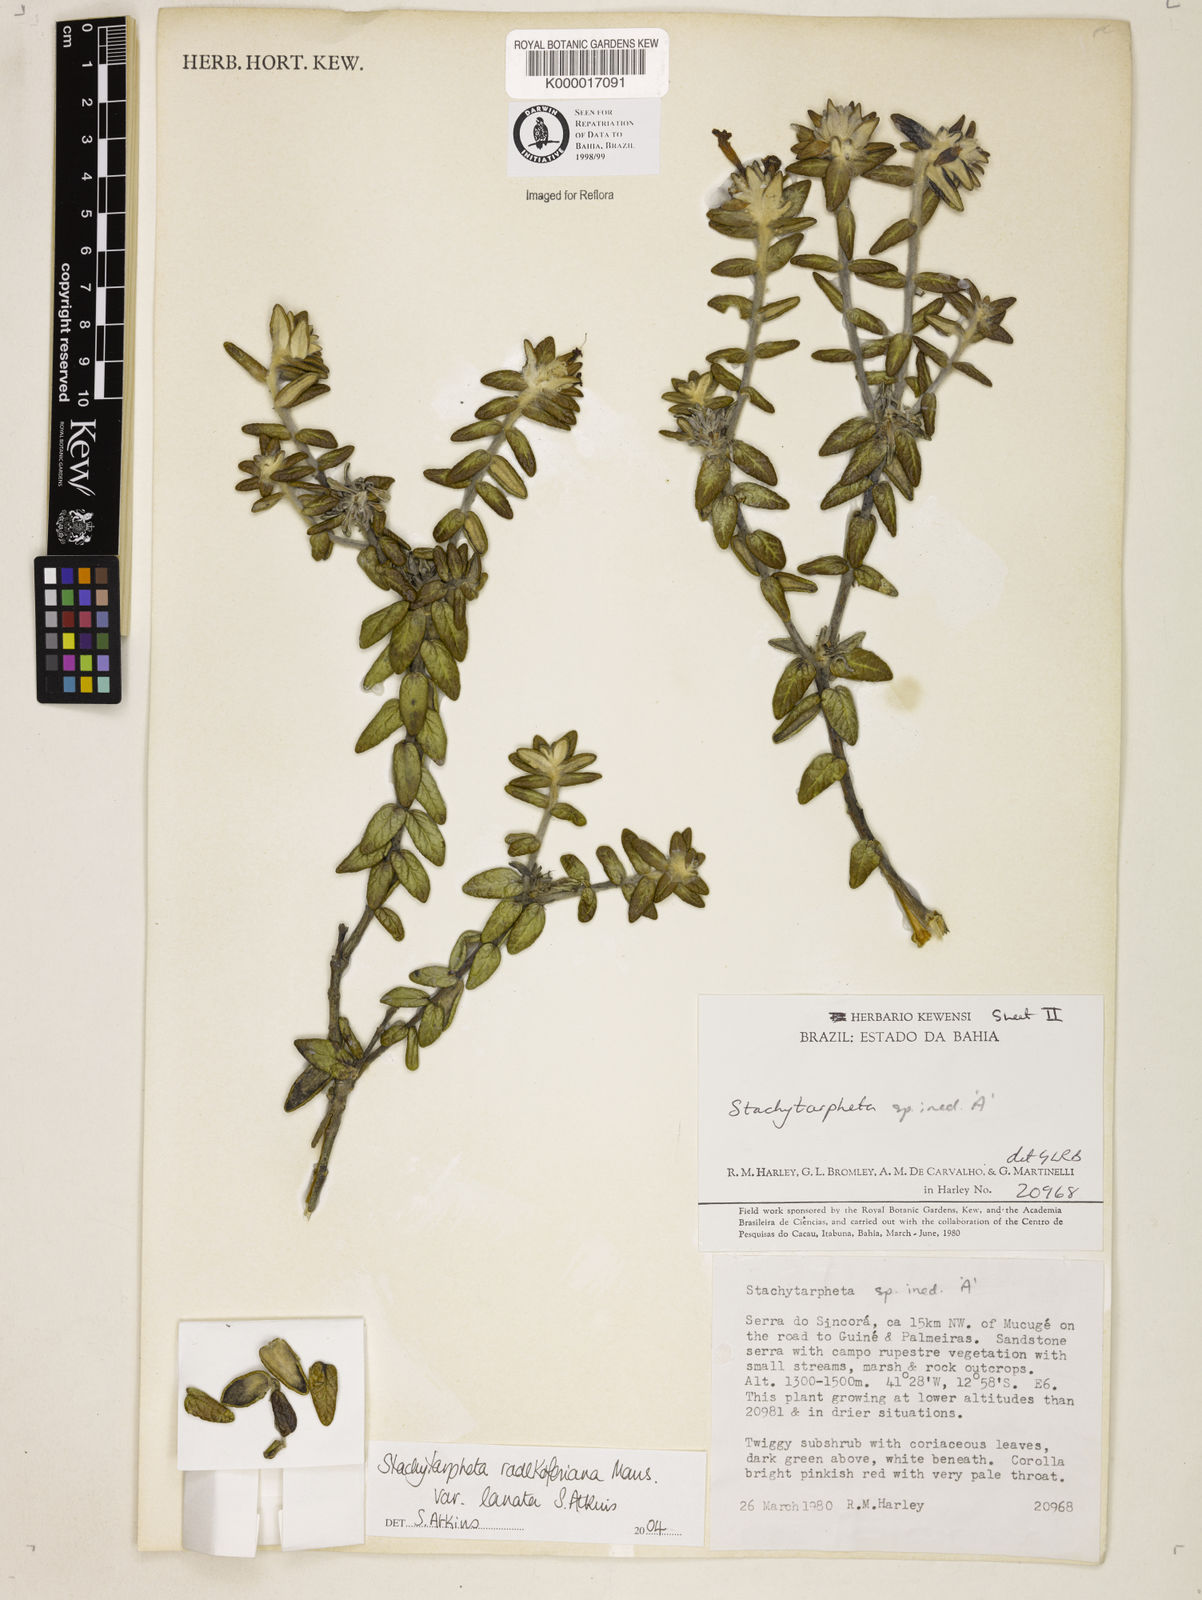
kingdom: Plantae
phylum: Tracheophyta
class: Magnoliopsida
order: Lamiales
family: Verbenaceae
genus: Stachytarpheta
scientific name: Stachytarpheta radlkoferiana
